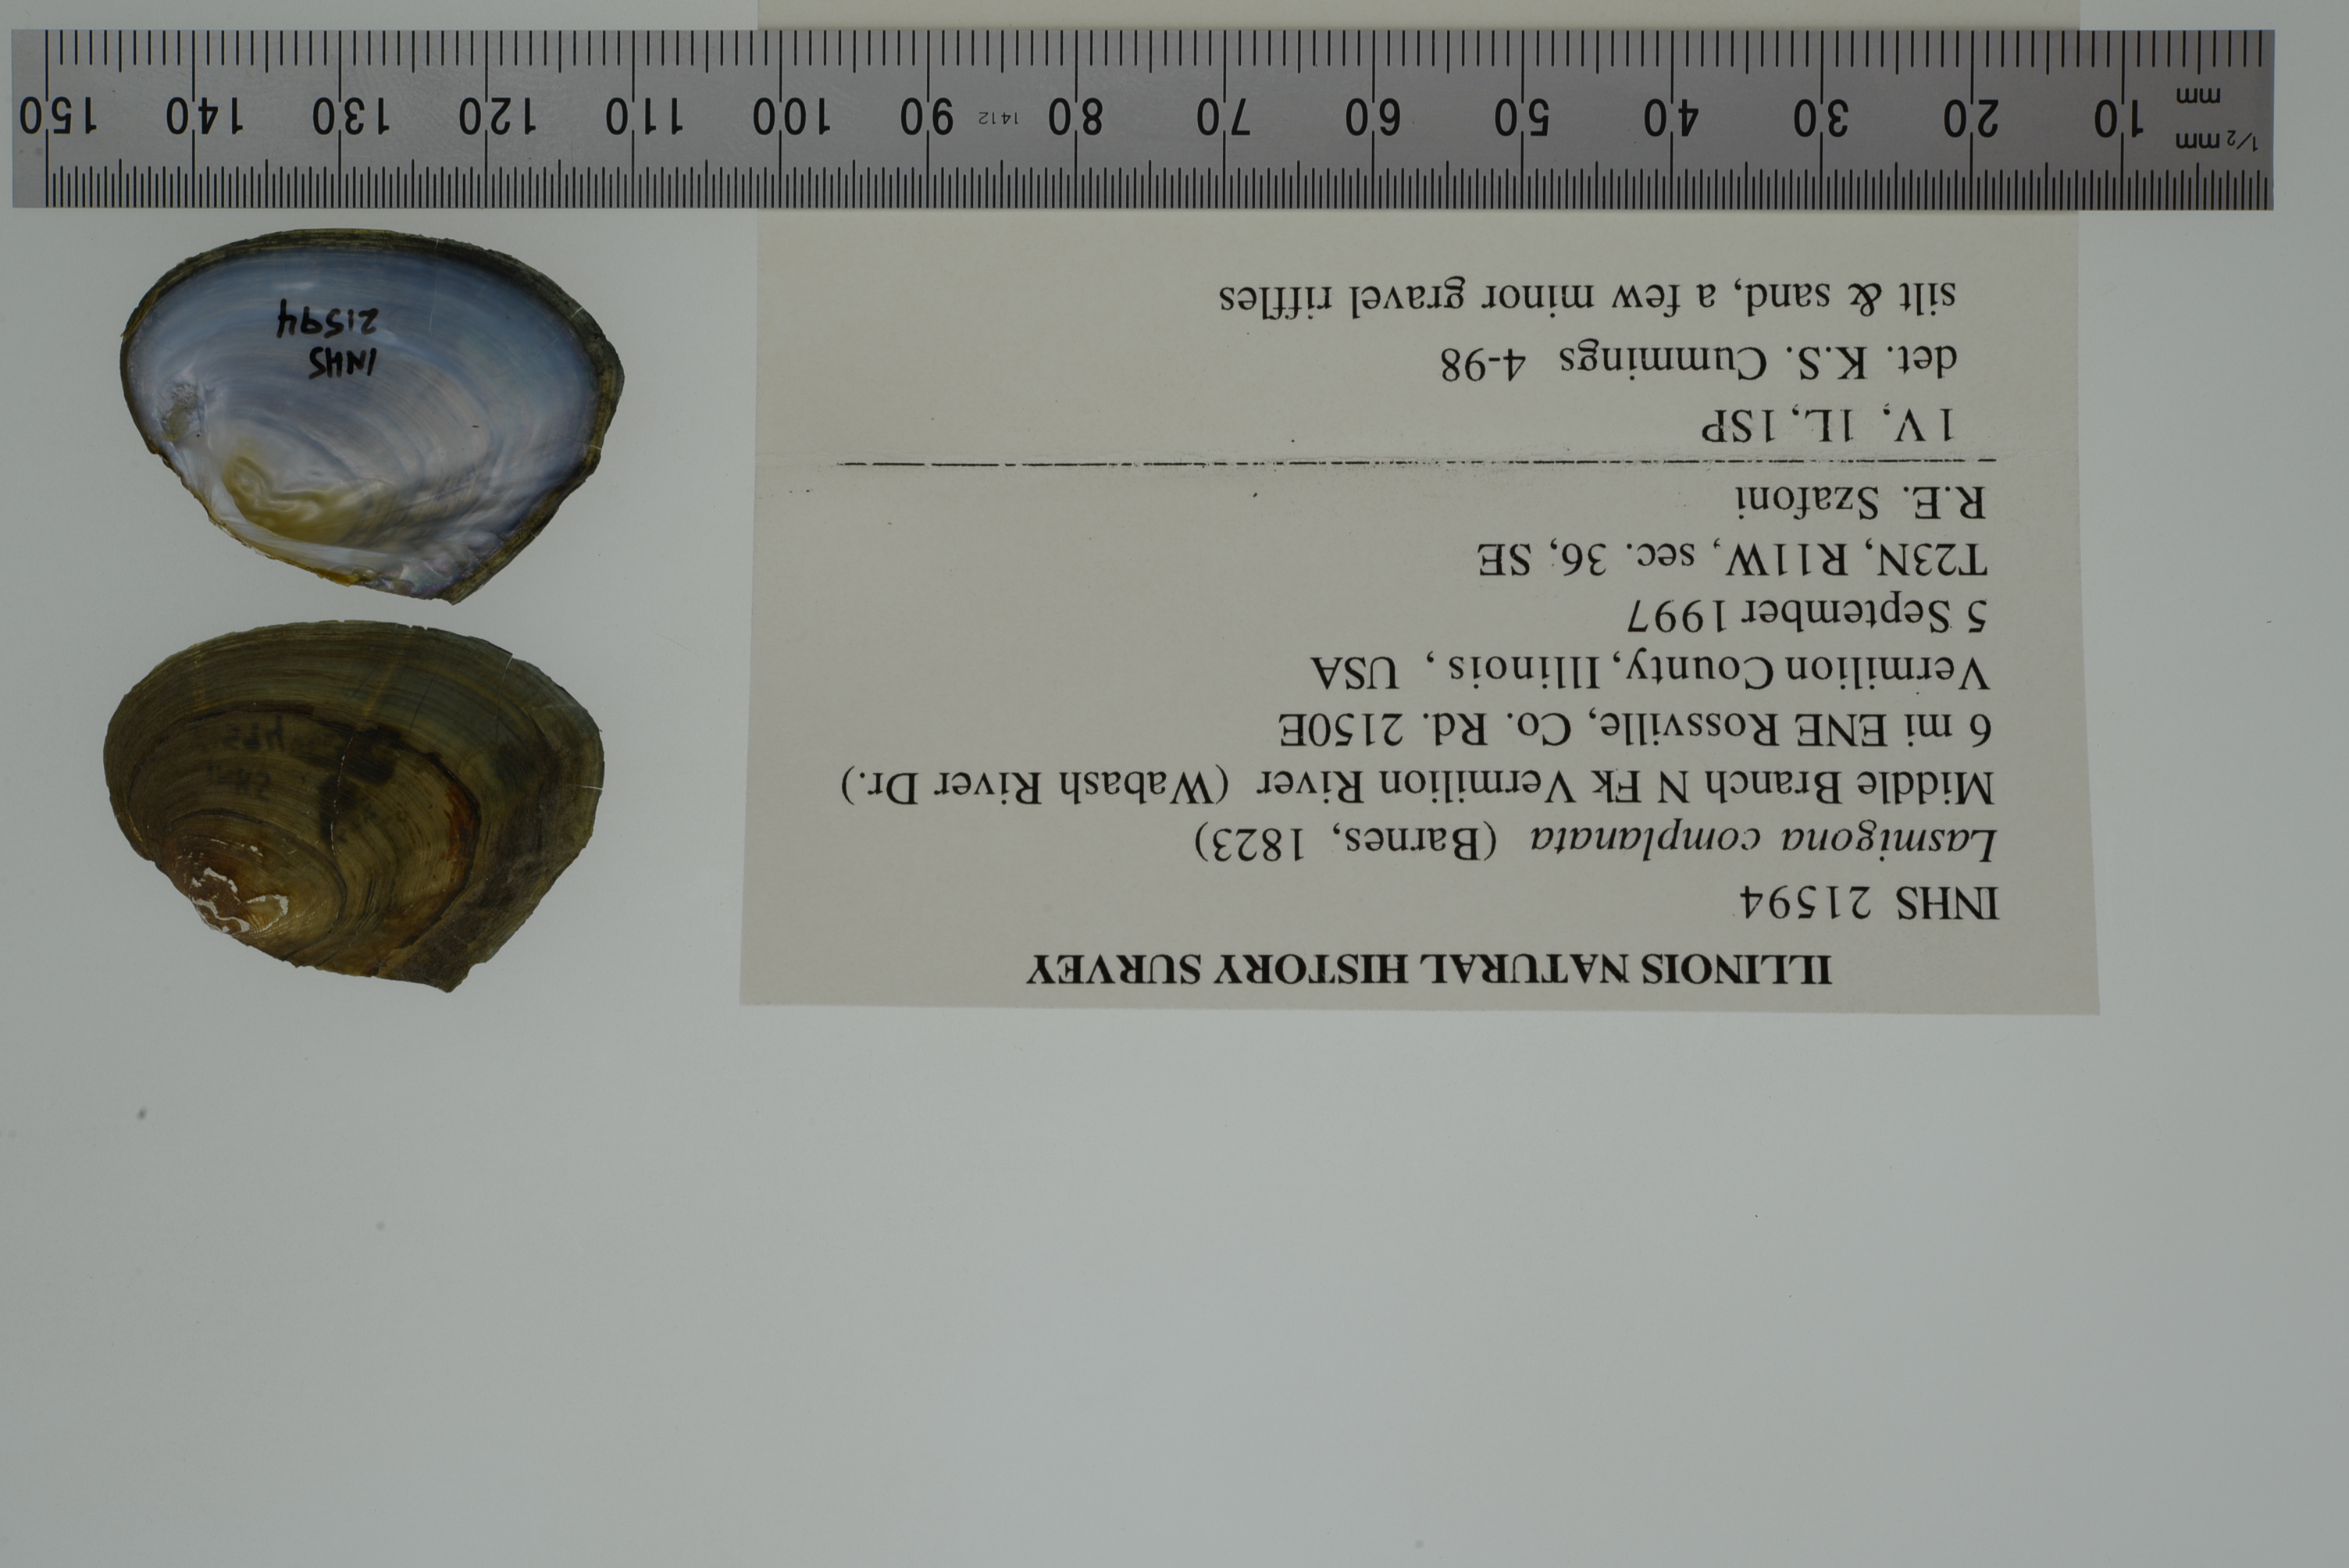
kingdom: Animalia
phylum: Mollusca
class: Bivalvia
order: Unionida
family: Unionidae
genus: Lasmigona
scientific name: Lasmigona complanata
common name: White heelsplitter
